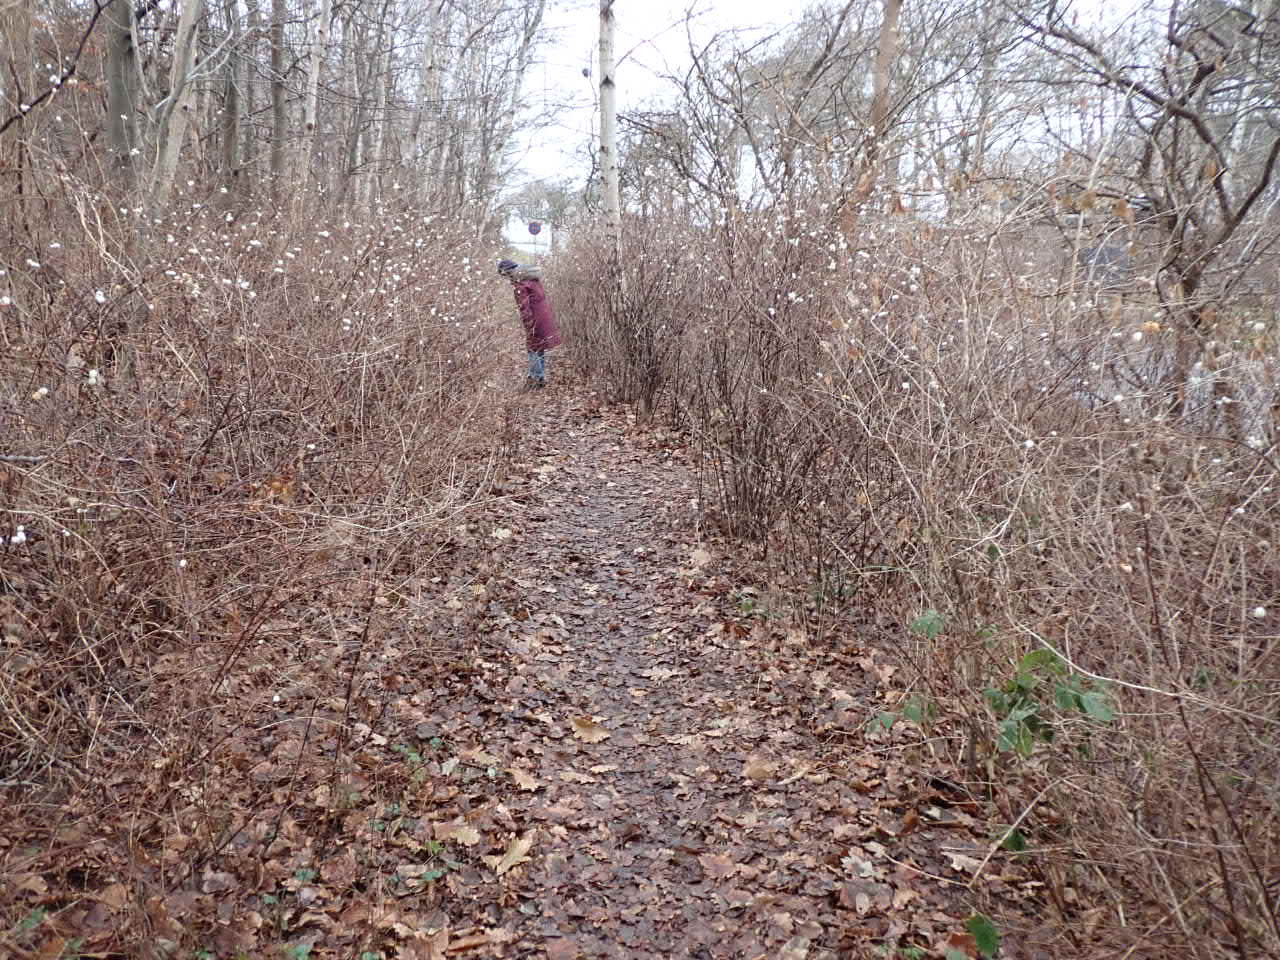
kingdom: Plantae
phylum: Tracheophyta
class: Magnoliopsida
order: Dipsacales
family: Caprifoliaceae
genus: Symphoricarpos
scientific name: Symphoricarpos albus
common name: Almindelig snebær
